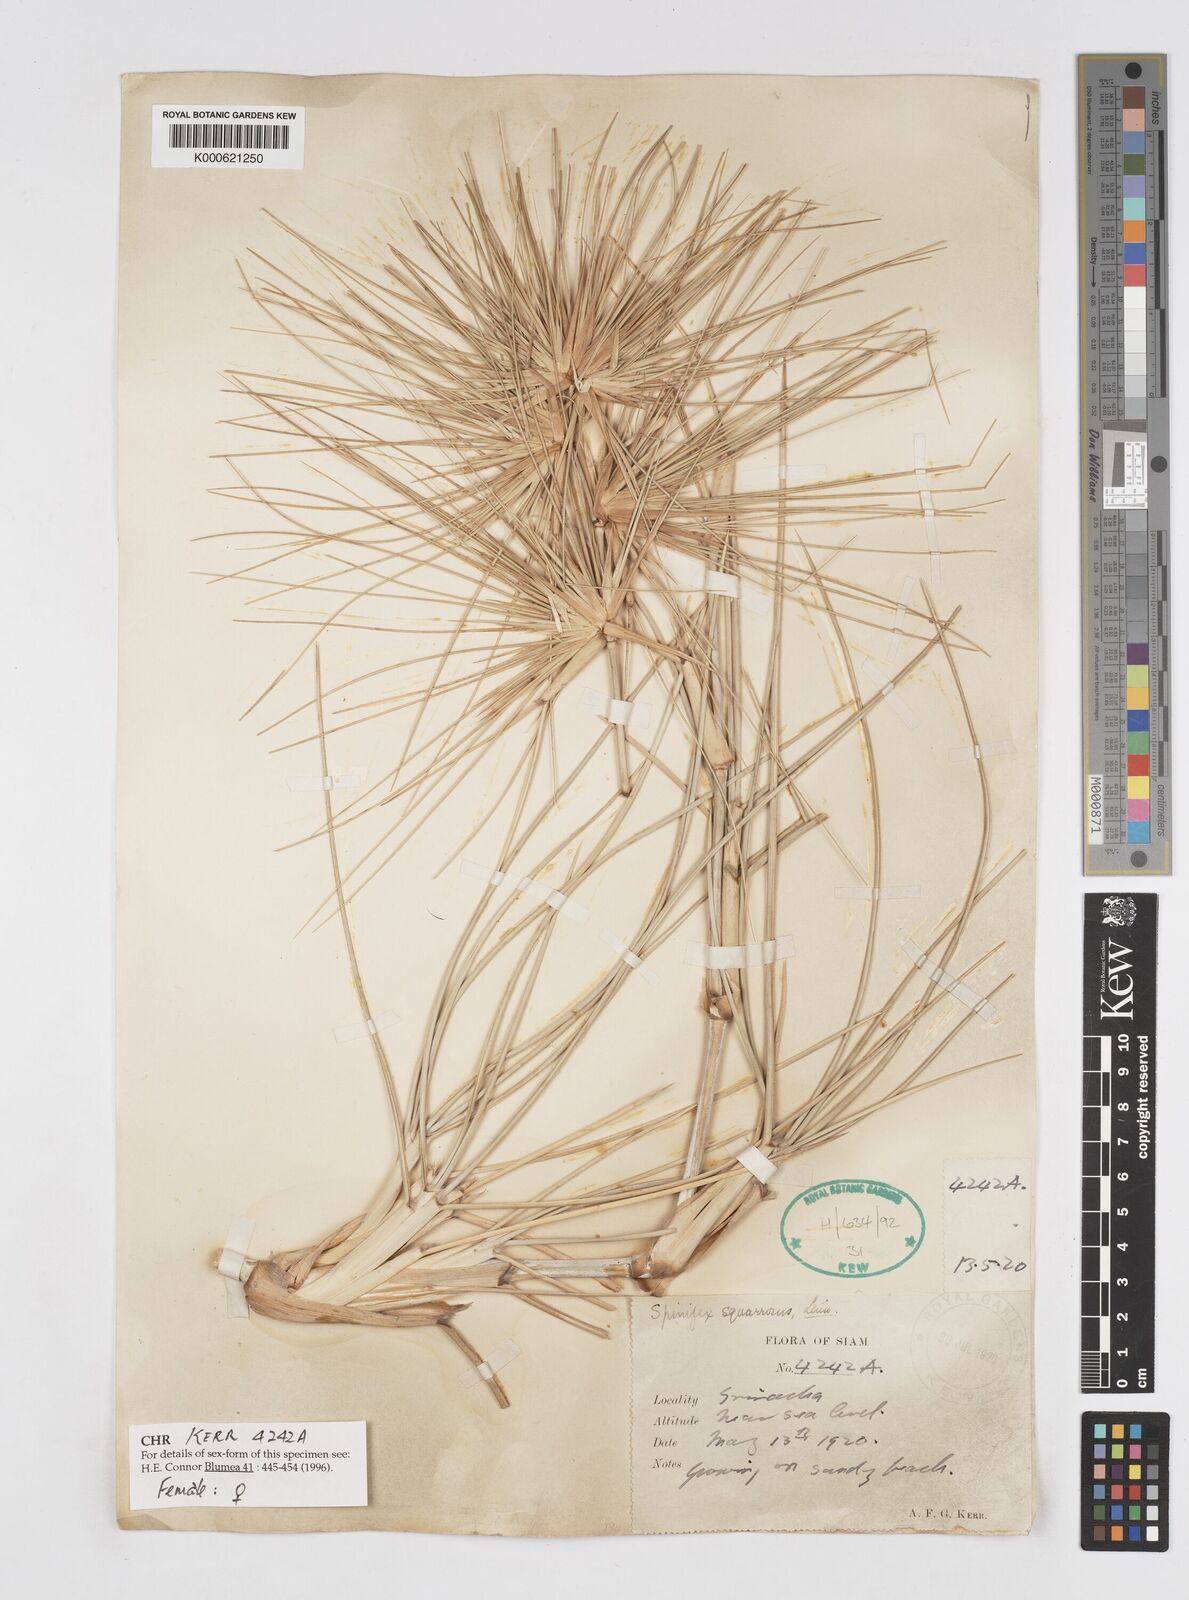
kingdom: Plantae
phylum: Tracheophyta
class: Liliopsida
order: Poales
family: Poaceae
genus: Spinifex
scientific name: Spinifex littoreus
